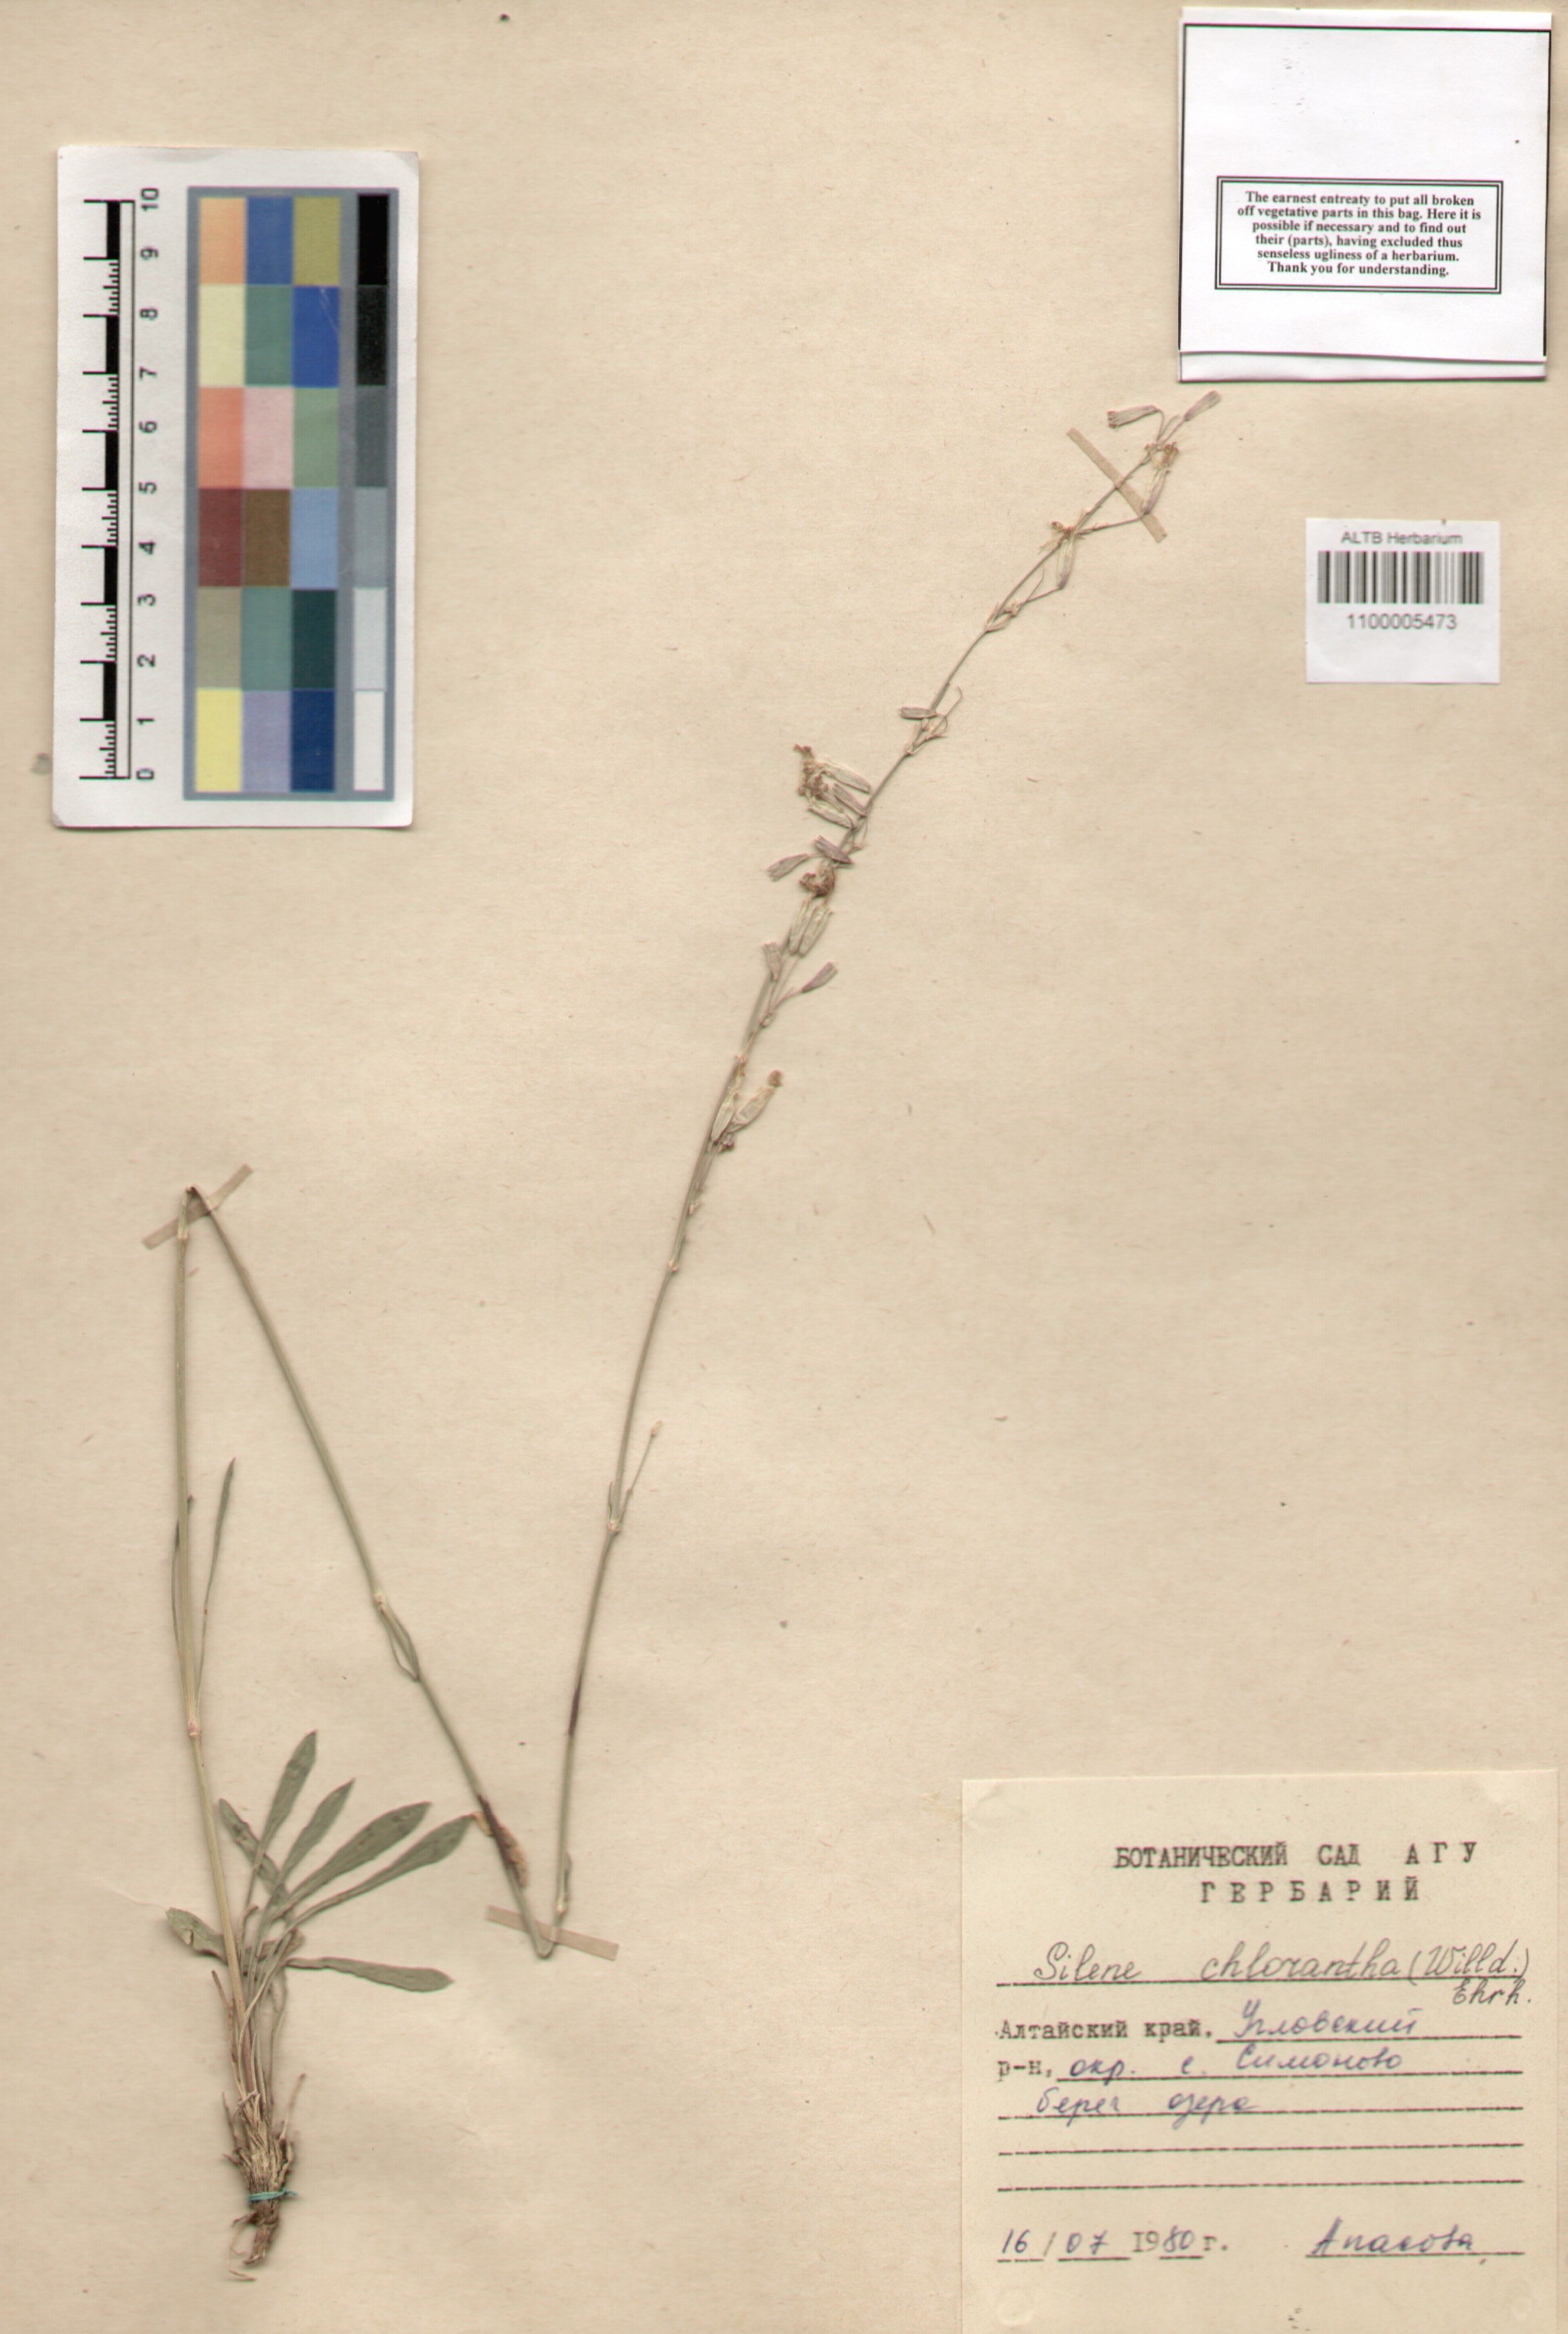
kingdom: Plantae
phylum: Tracheophyta
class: Magnoliopsida
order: Caryophyllales
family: Caryophyllaceae
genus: Silene
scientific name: Silene chlorantha
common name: Yellowgreen catchfly
